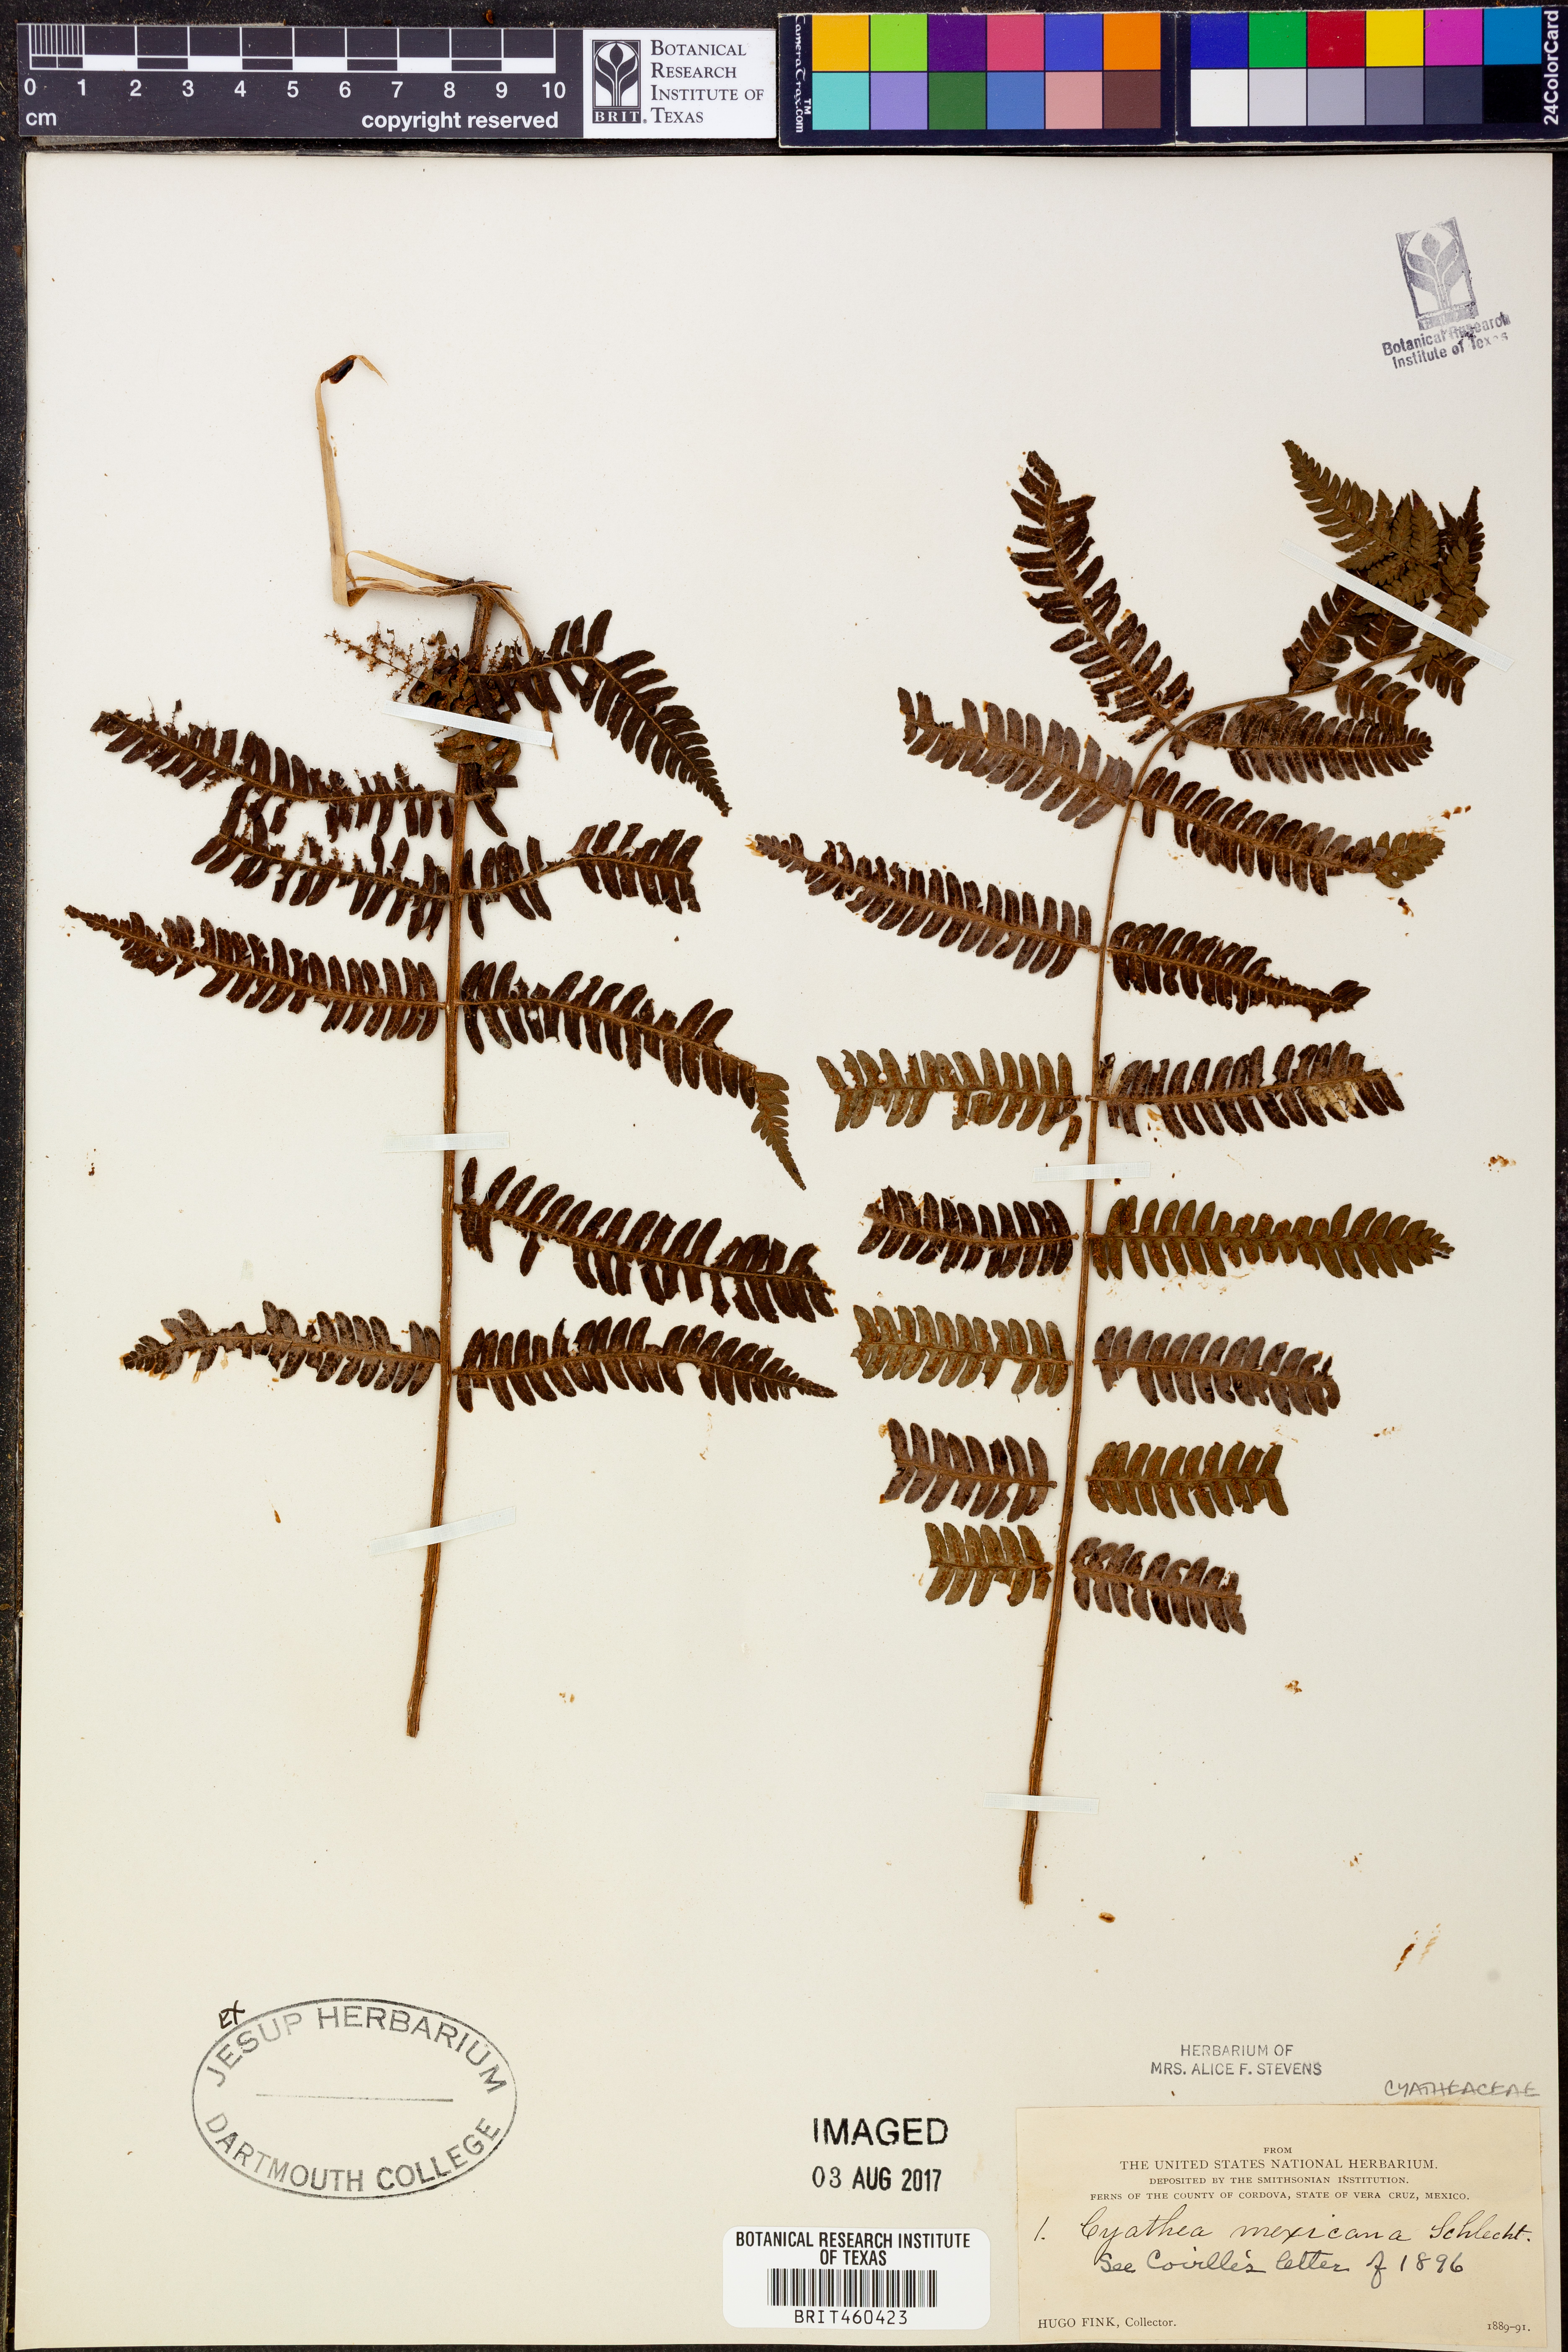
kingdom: Plantae
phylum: Tracheophyta
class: Polypodiopsida
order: Cyatheales
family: Cyatheaceae
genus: Alsophila
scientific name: Alsophila firma
